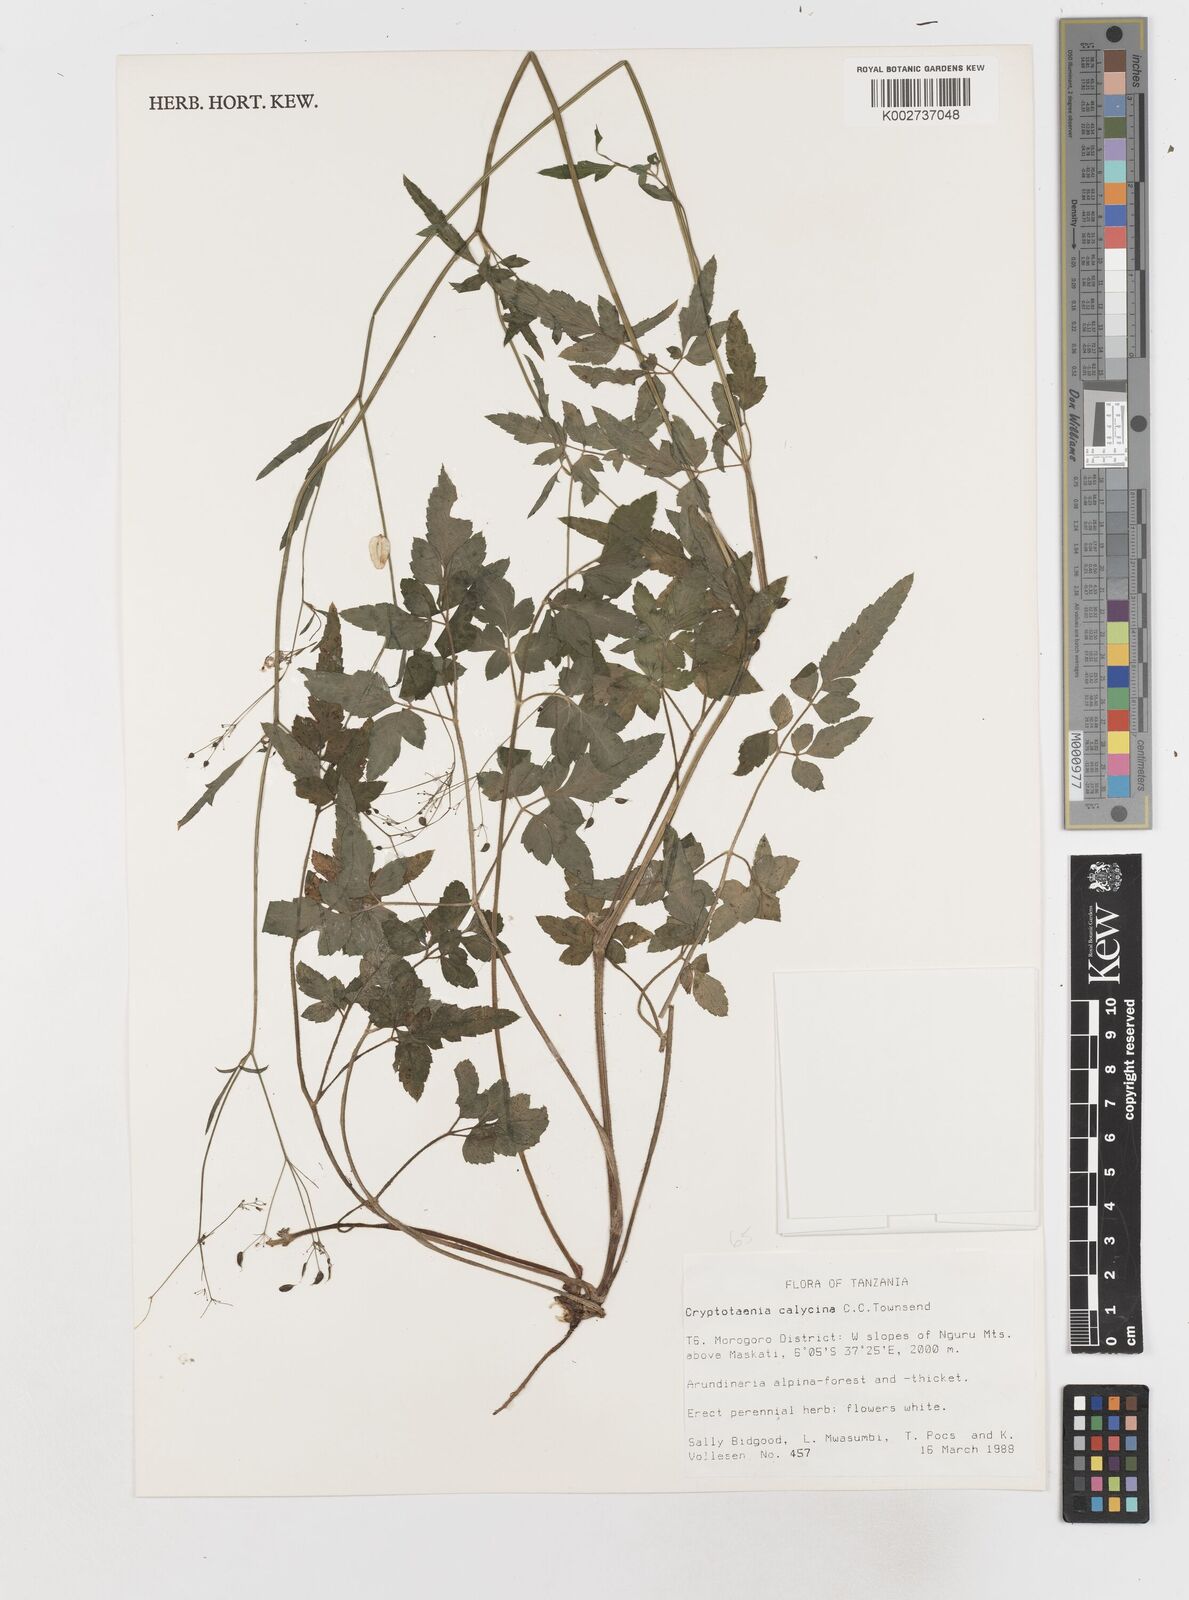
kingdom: Plantae
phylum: Tracheophyta
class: Magnoliopsida
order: Apiales
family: Apiaceae
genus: Cryptotaenia
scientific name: Cryptotaenia calycina
